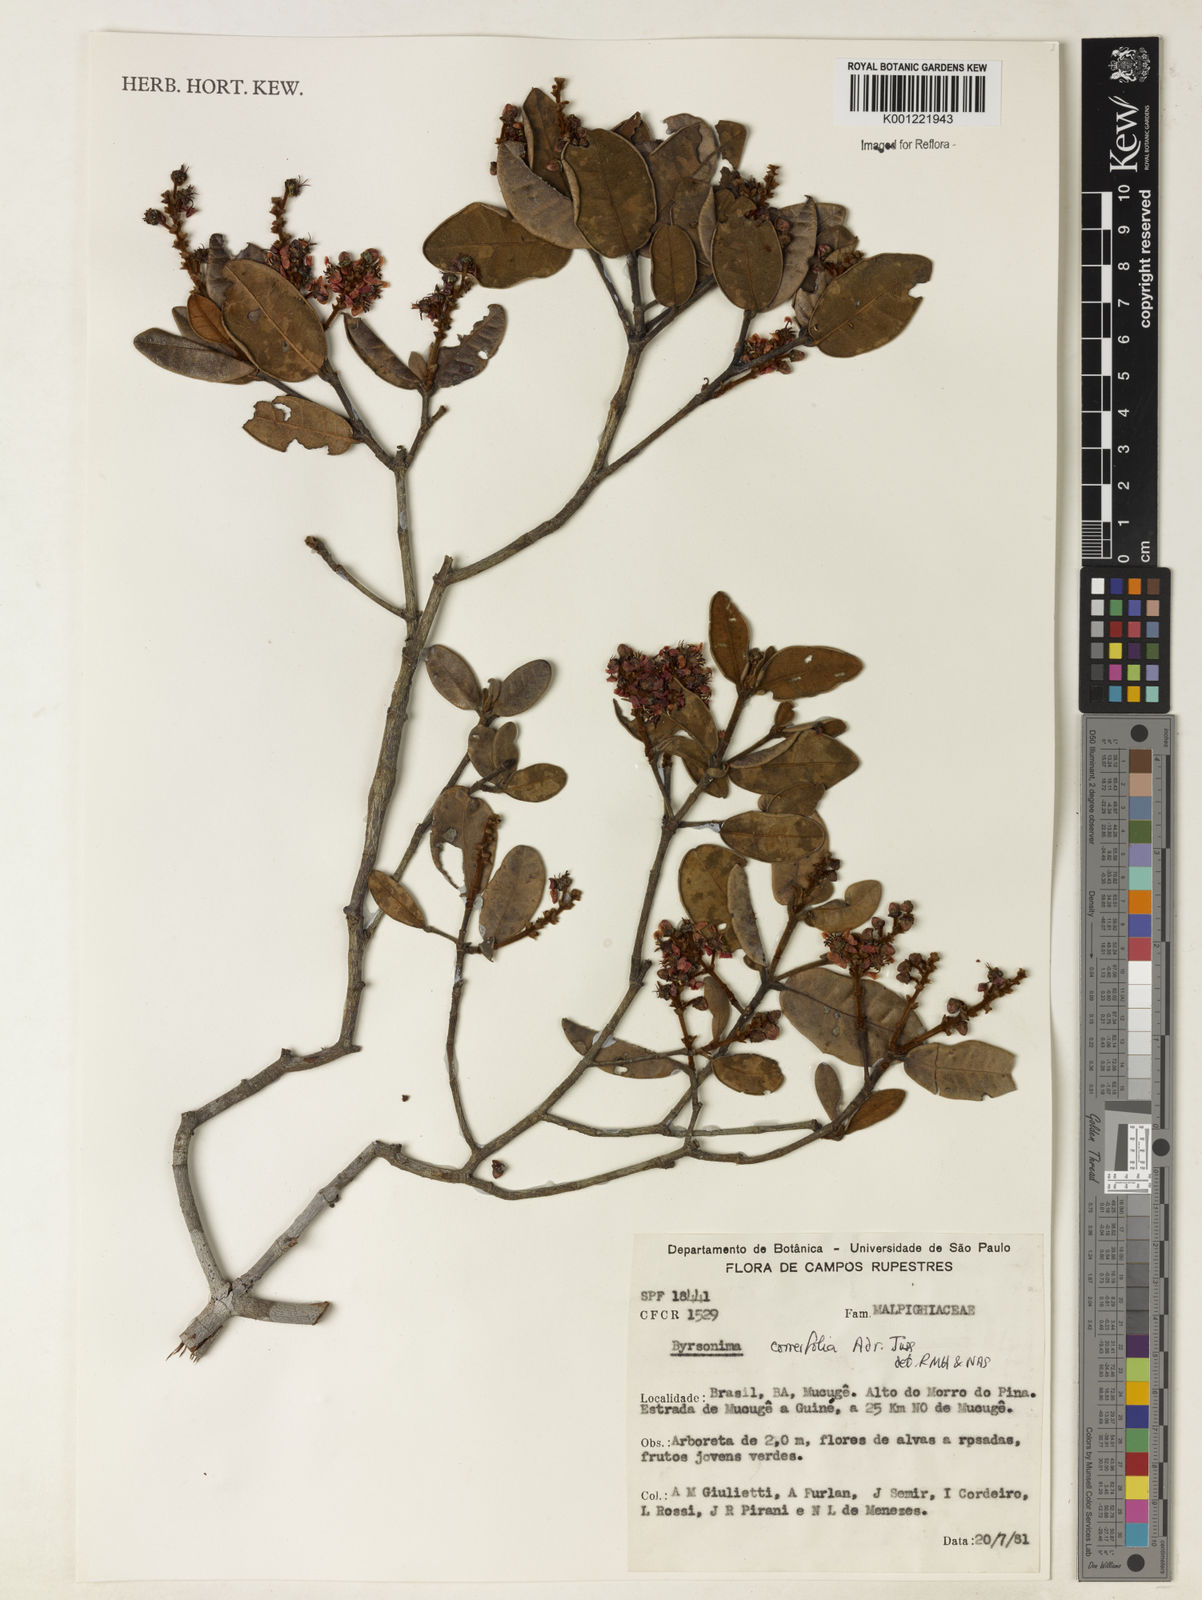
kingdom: Plantae
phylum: Tracheophyta
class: Magnoliopsida
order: Malpighiales
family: Malpighiaceae
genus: Byrsonima
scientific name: Byrsonima correifolia
